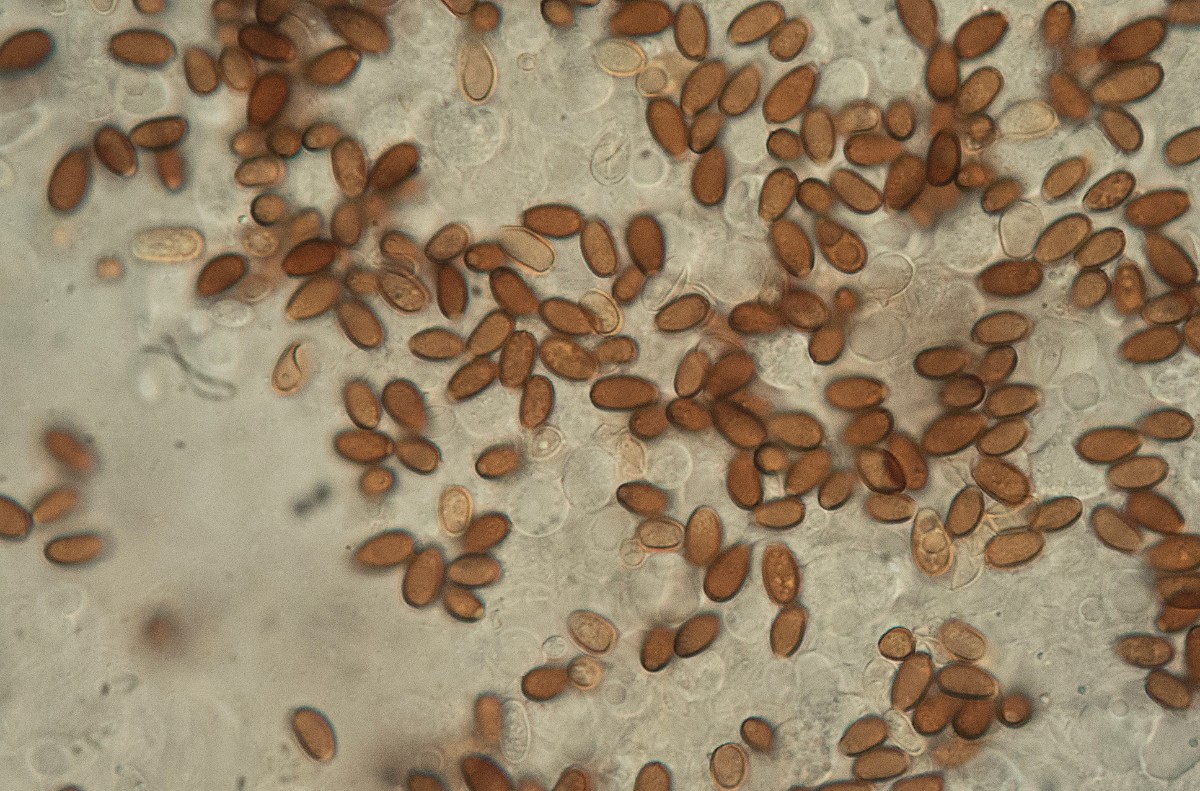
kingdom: Fungi
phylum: Basidiomycota
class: Agaricomycetes
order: Agaricales
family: Psathyrellaceae
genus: Candolleomyces
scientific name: Candolleomyces candolleanus
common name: Candolles mørkhat
